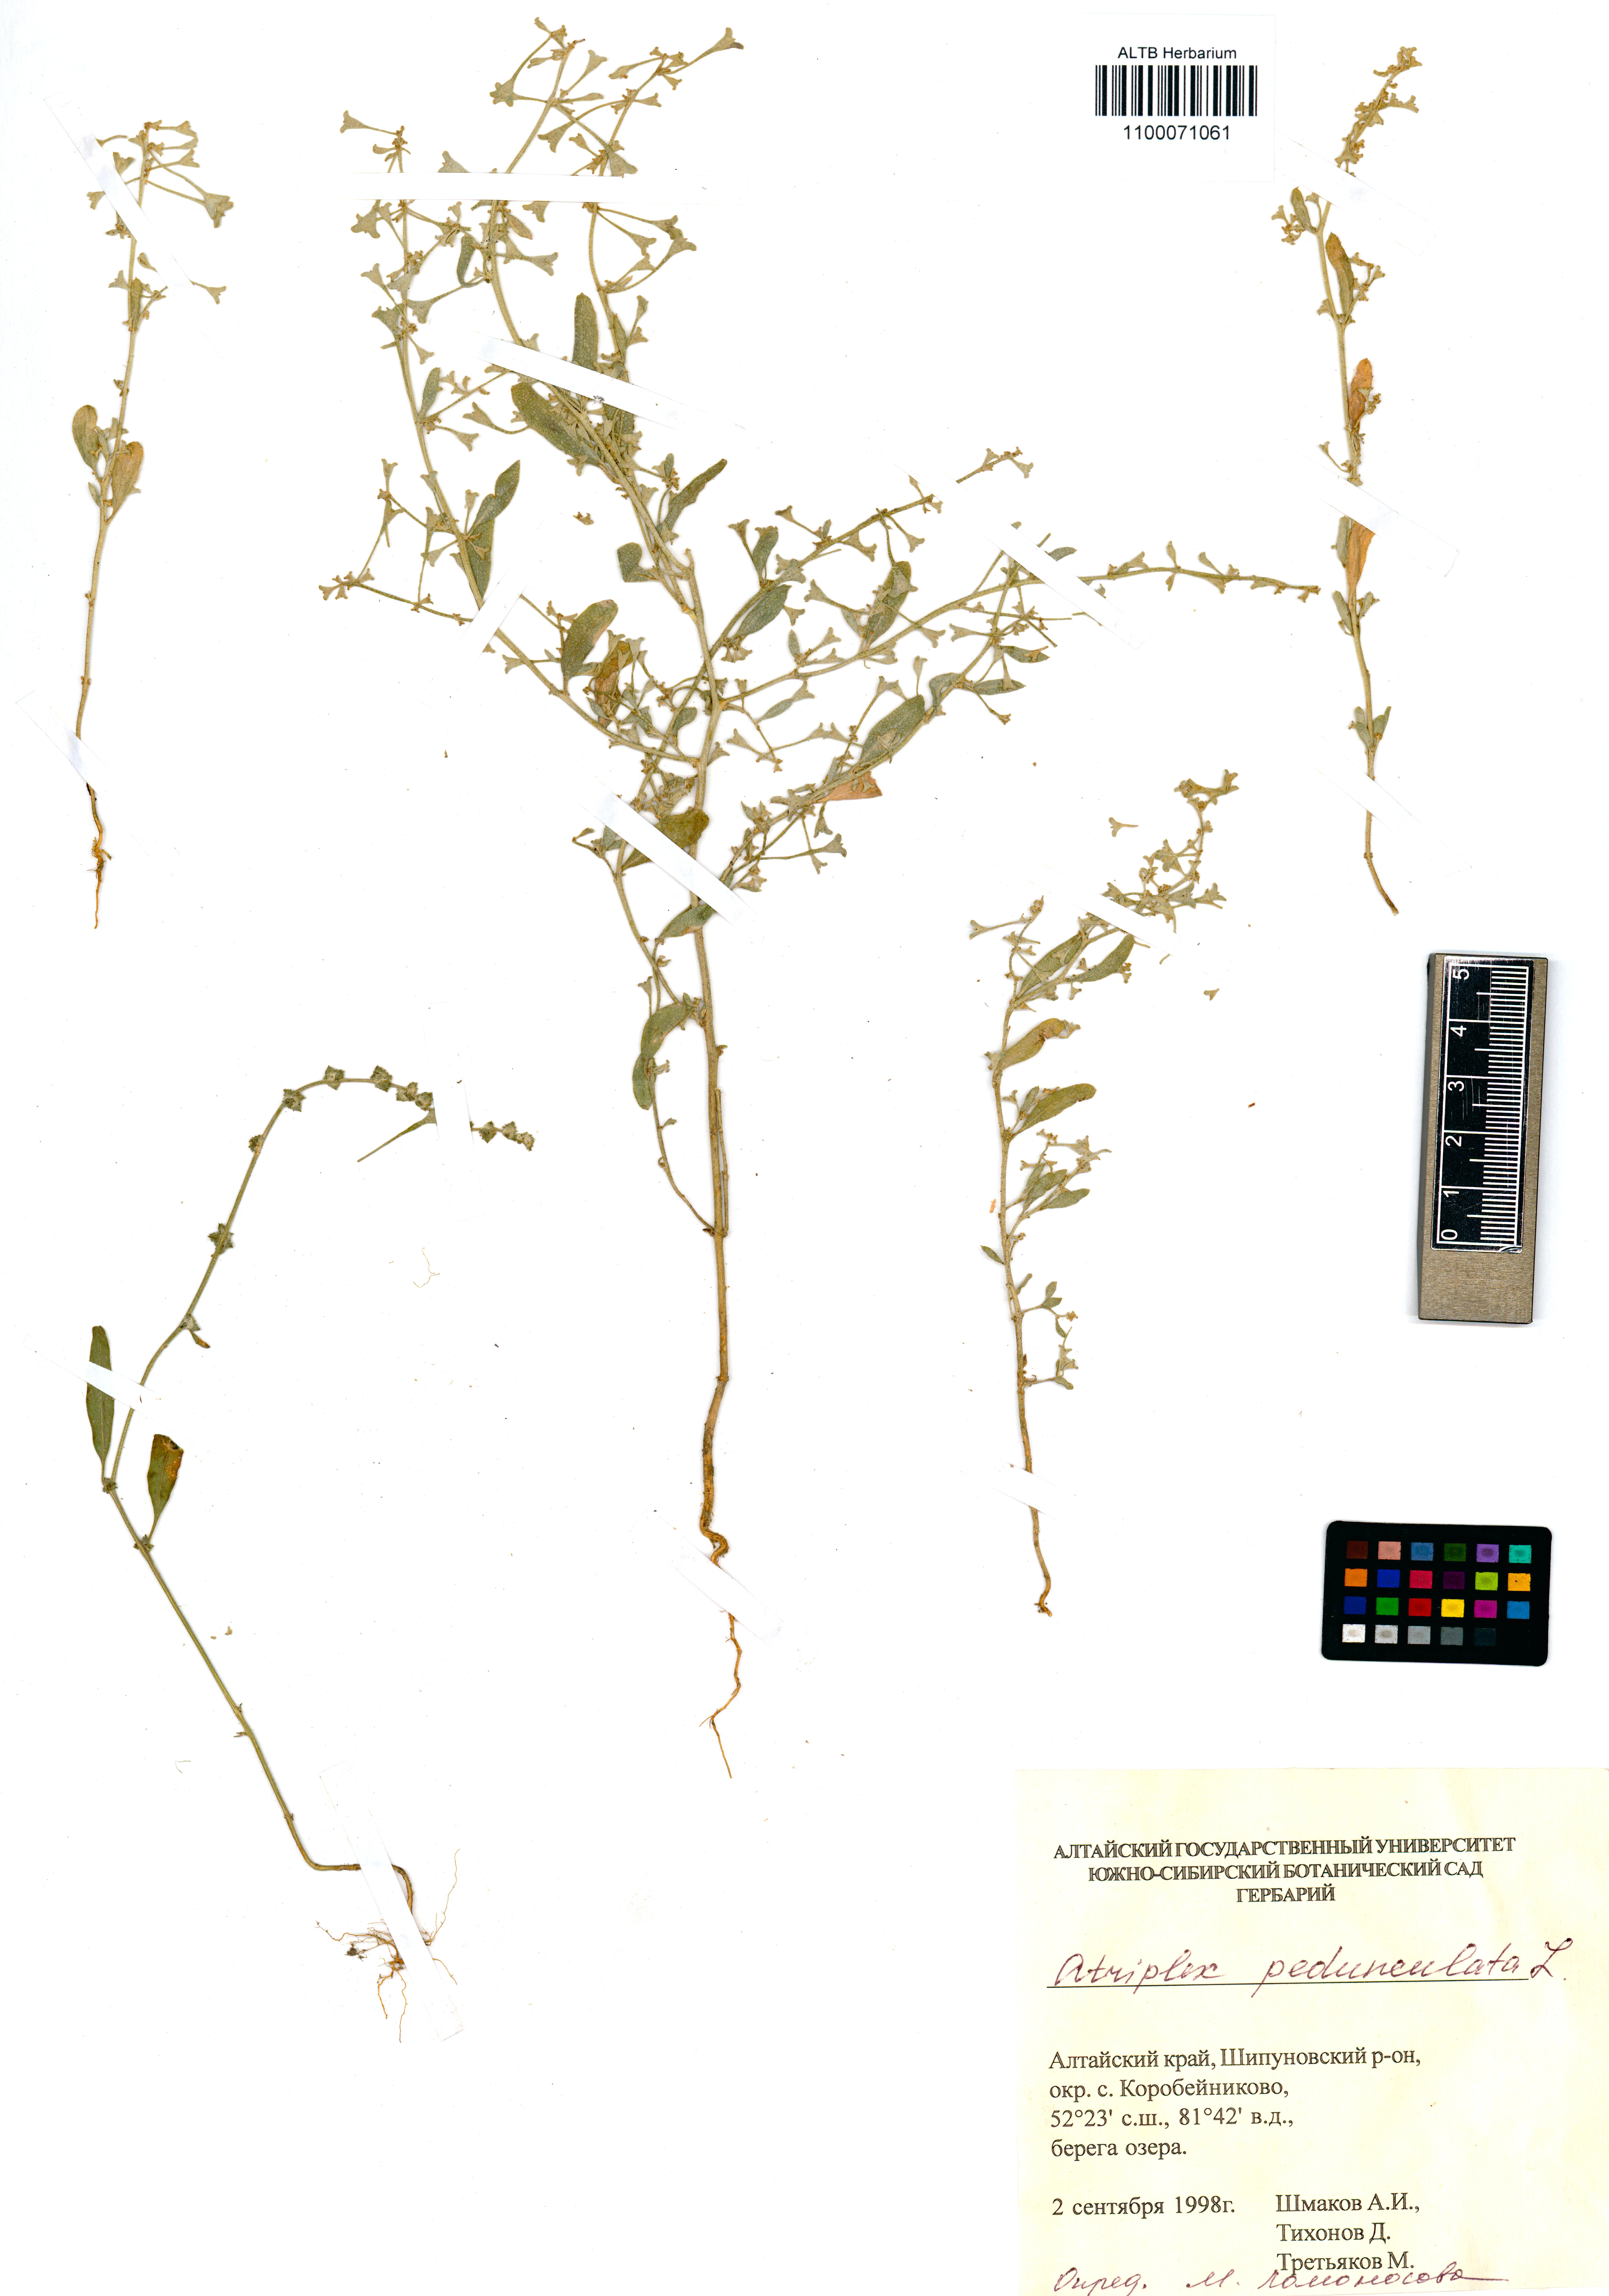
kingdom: Plantae
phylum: Tracheophyta
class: Magnoliopsida
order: Caryophyllales
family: Amaranthaceae
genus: Halimione
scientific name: Halimione pedunculata
